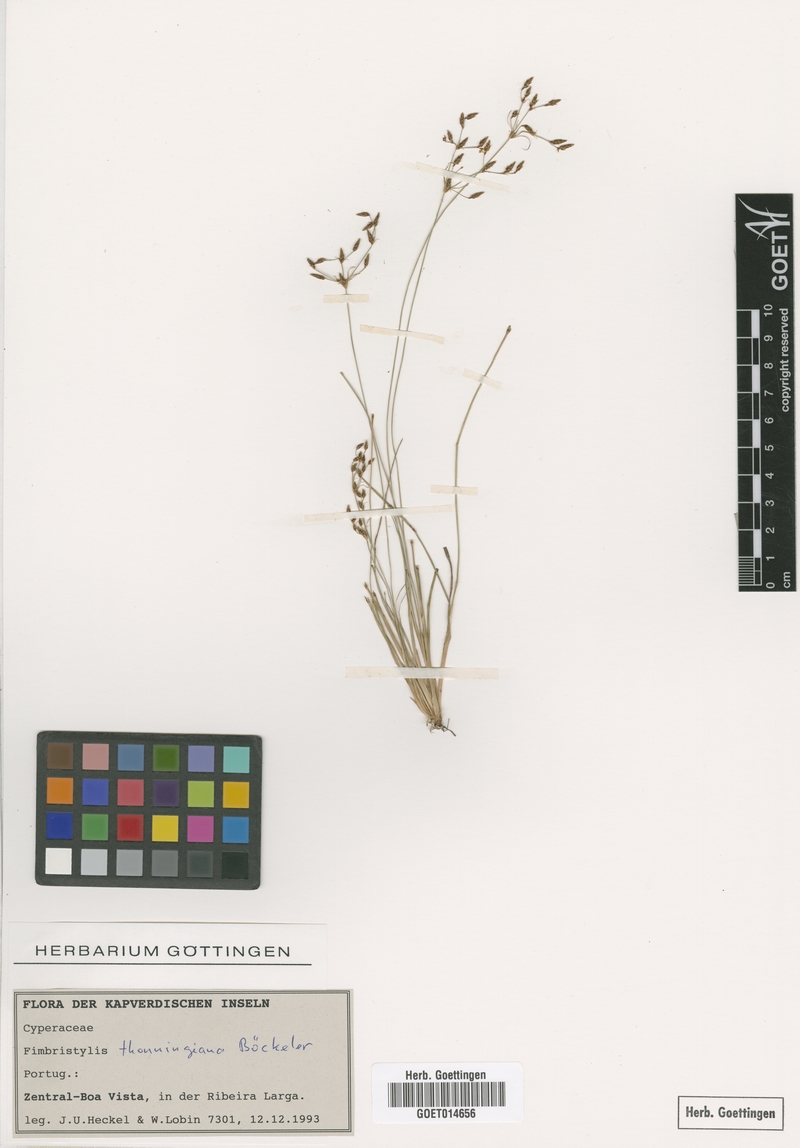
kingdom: Plantae
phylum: Tracheophyta
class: Liliopsida
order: Poales
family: Cyperaceae
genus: Fimbristylis
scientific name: Fimbristylis microcarya
